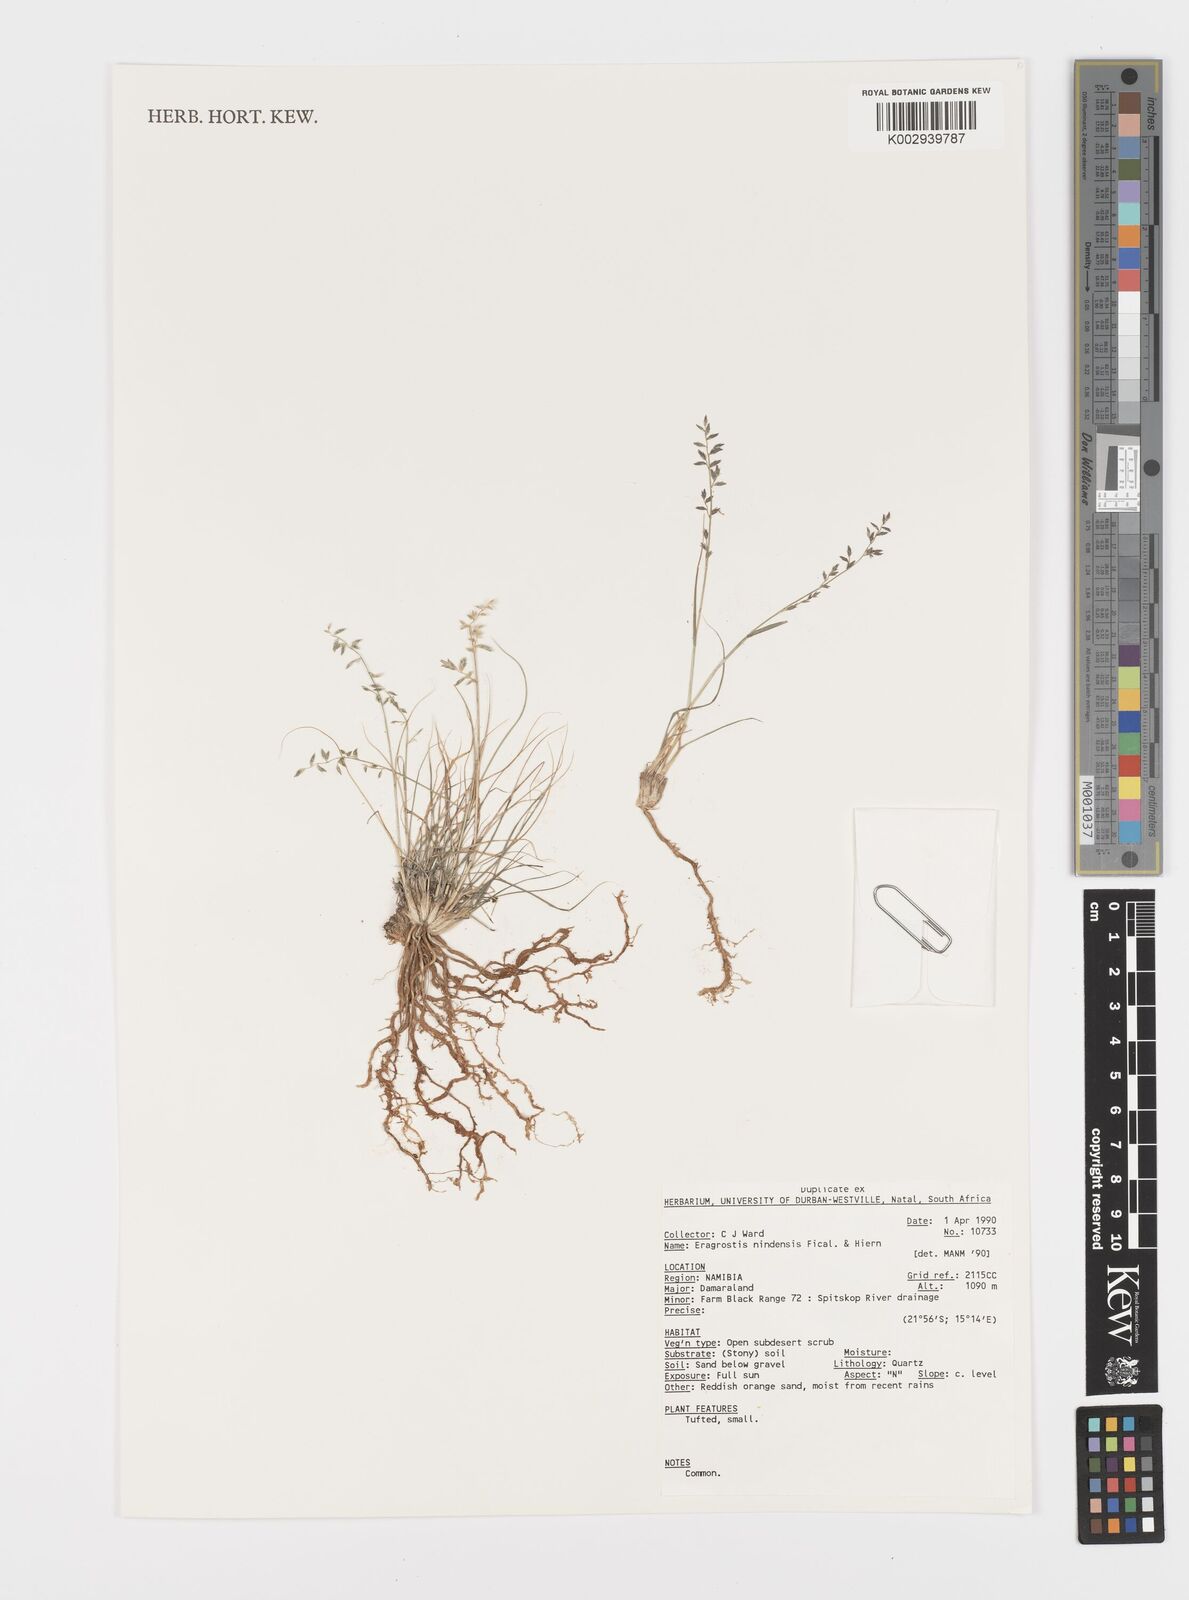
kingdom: Plantae
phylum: Tracheophyta
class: Liliopsida
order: Poales
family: Poaceae
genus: Eragrostis
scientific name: Eragrostis nindensis
